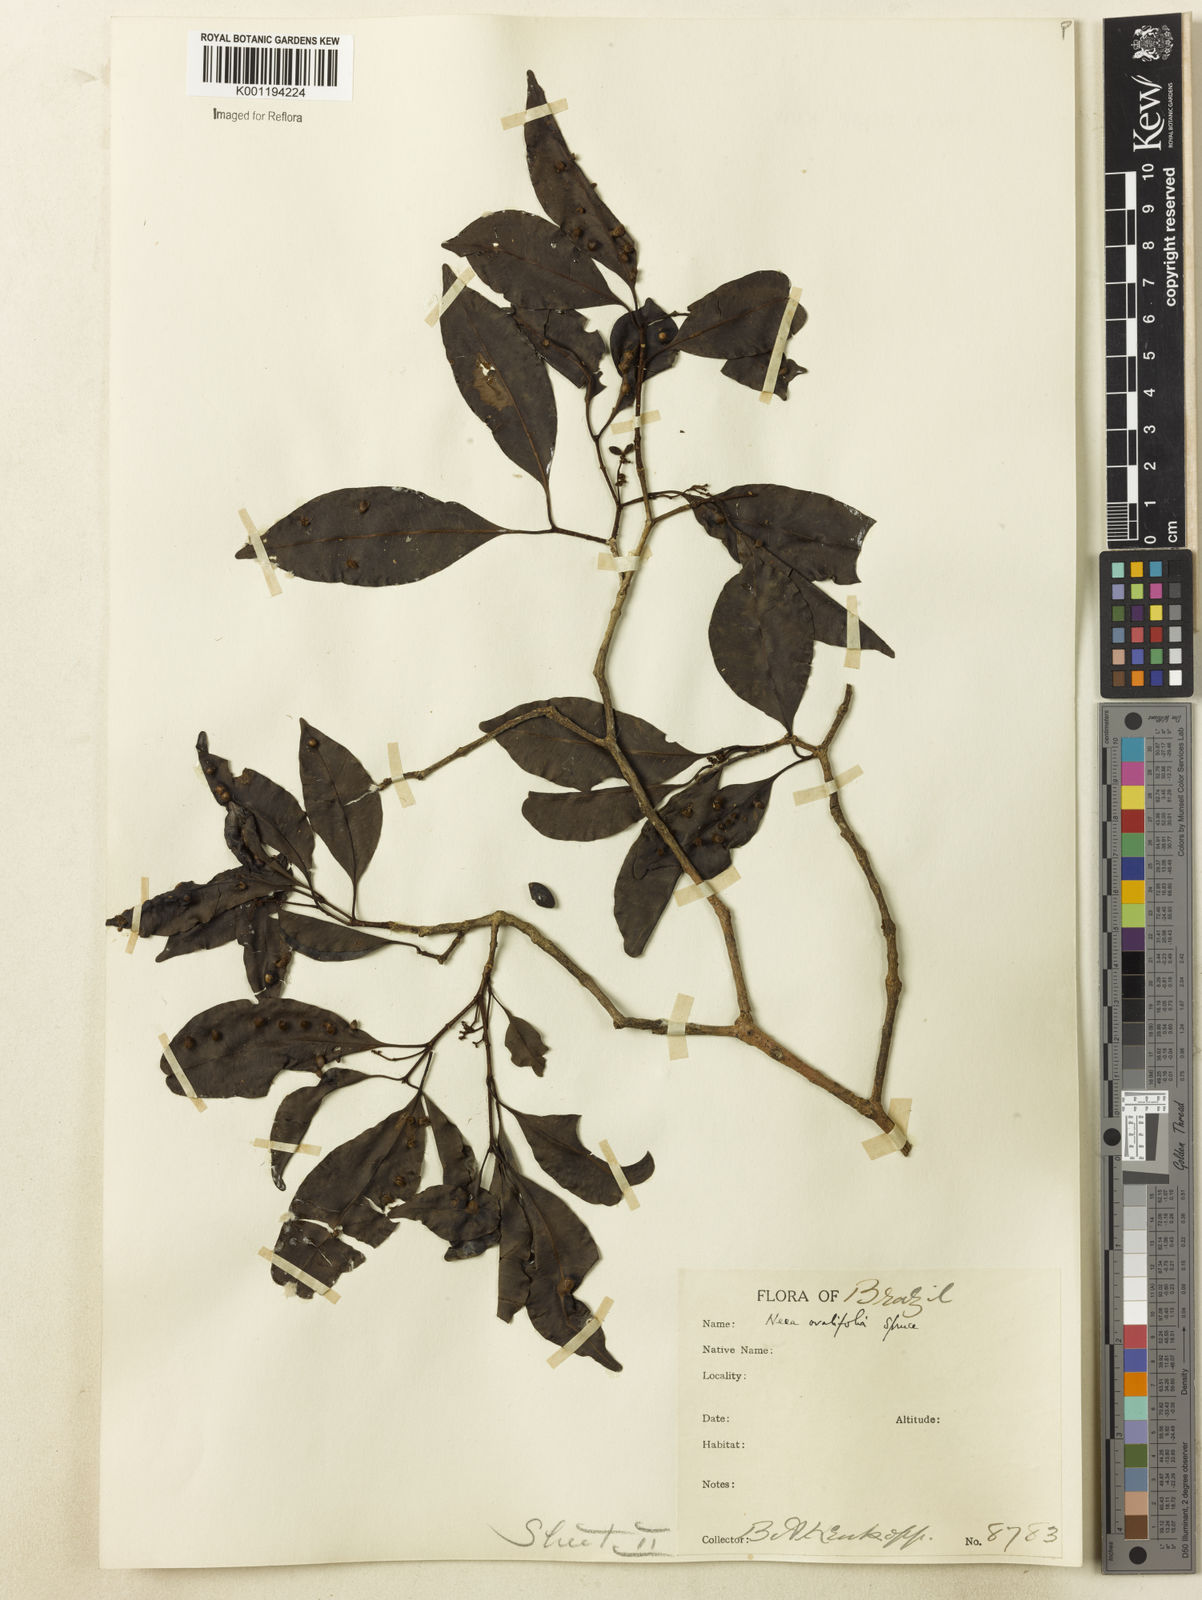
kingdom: Plantae
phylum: Tracheophyta
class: Magnoliopsida
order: Caryophyllales
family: Nyctaginaceae
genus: Neea
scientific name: Neea ovalifolia
